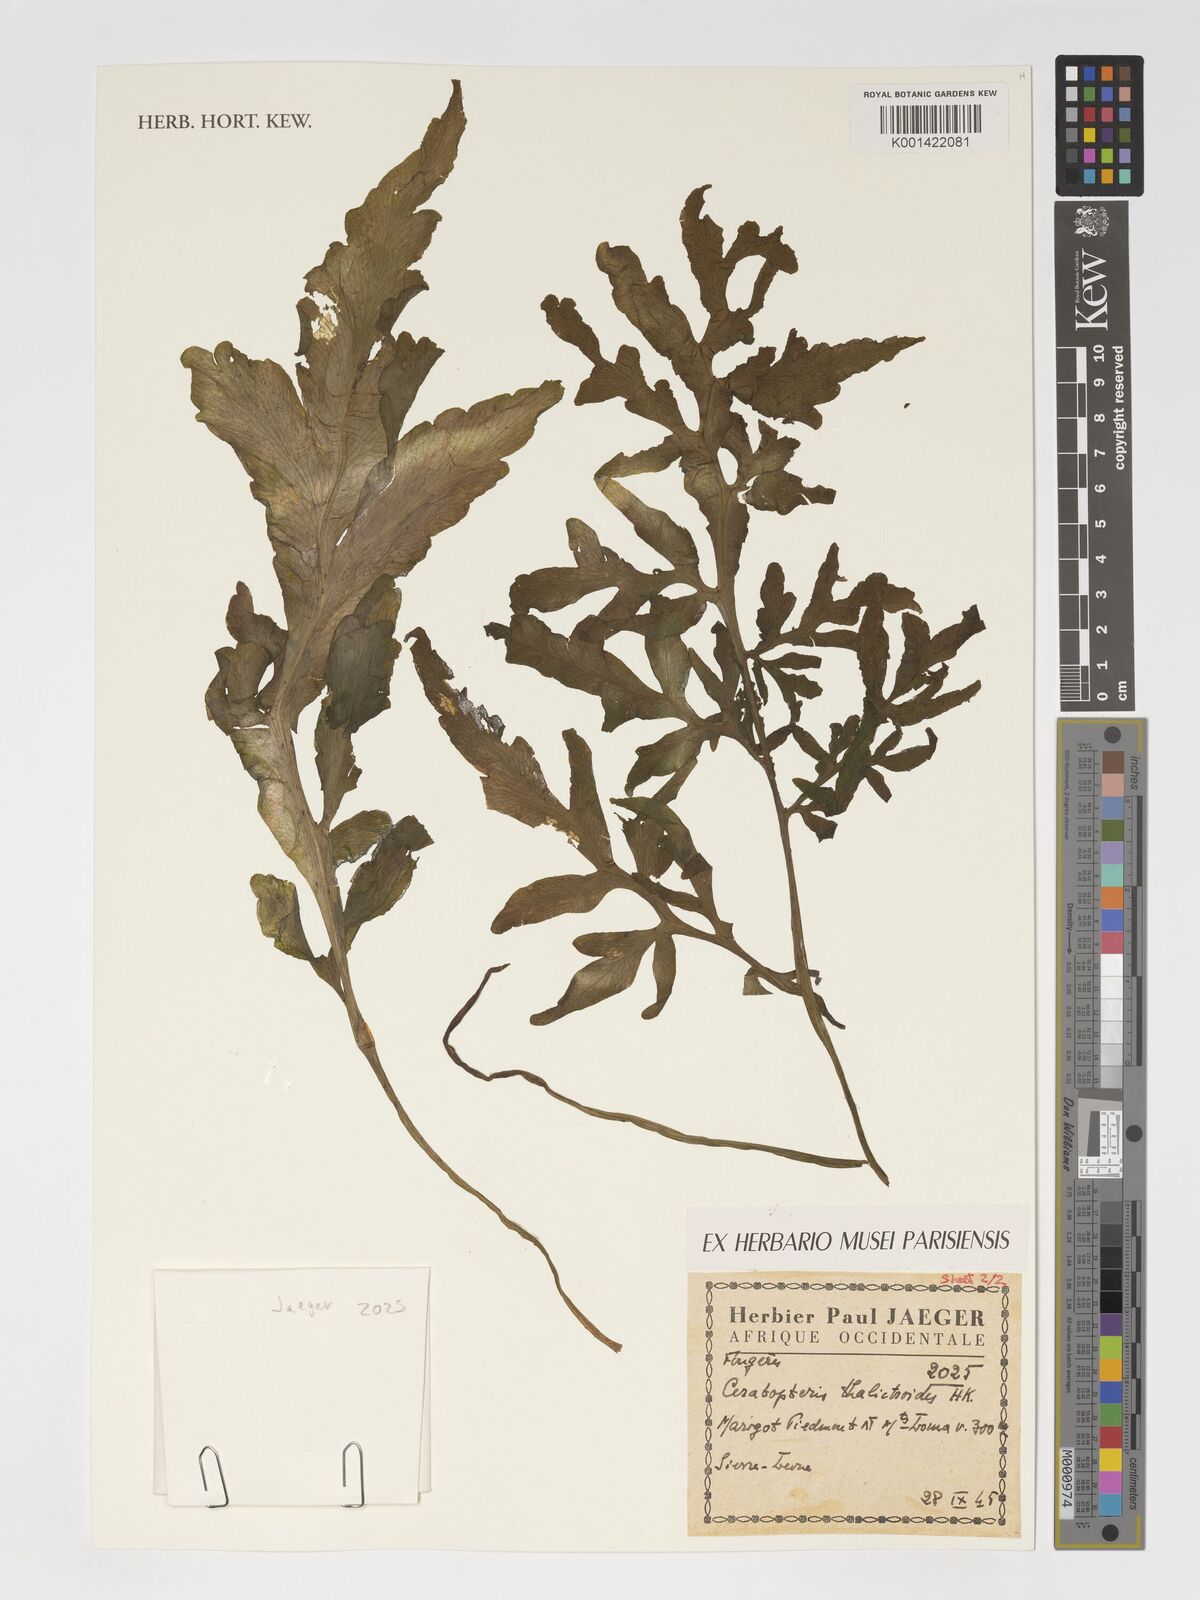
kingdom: Plantae
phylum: Tracheophyta
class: Polypodiopsida
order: Polypodiales
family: Pteridaceae
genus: Ceratopteris
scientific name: Ceratopteris thalictroides
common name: Water fern
